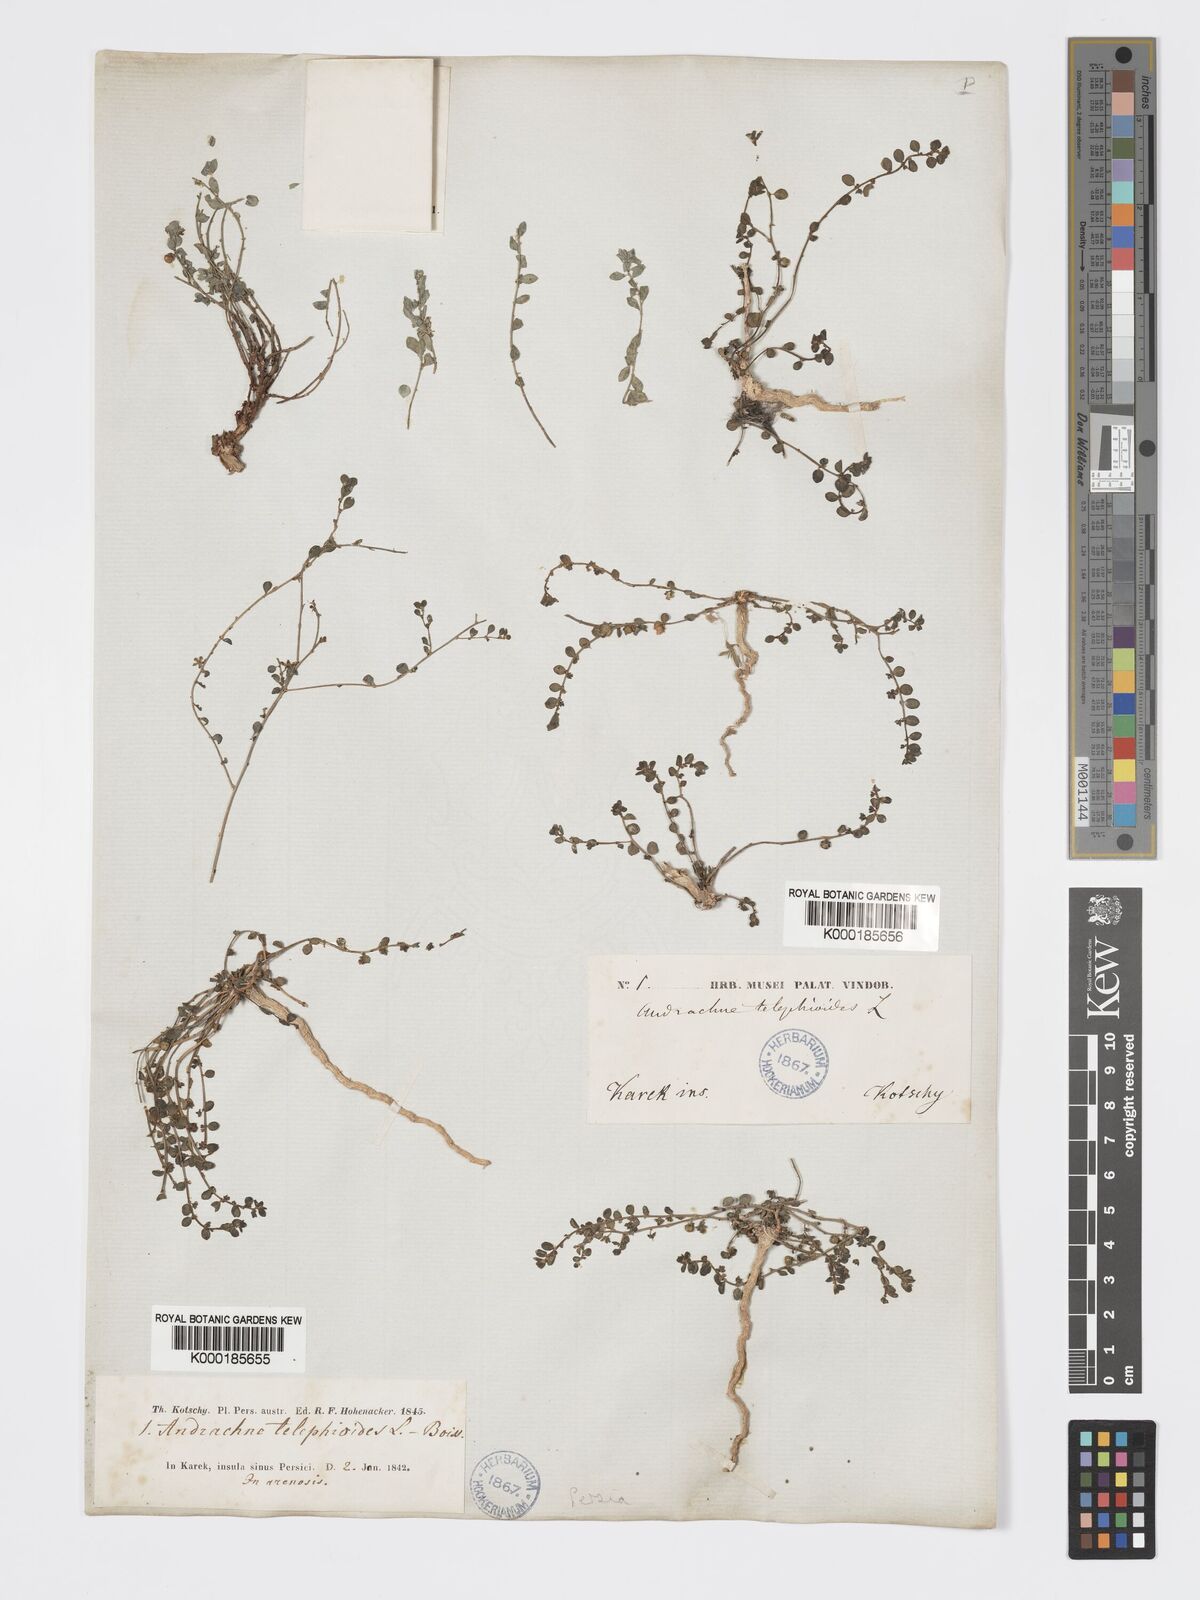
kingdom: Plantae
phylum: Tracheophyta
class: Magnoliopsida
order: Malpighiales
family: Phyllanthaceae
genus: Andrachne
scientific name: Andrachne telephioides
